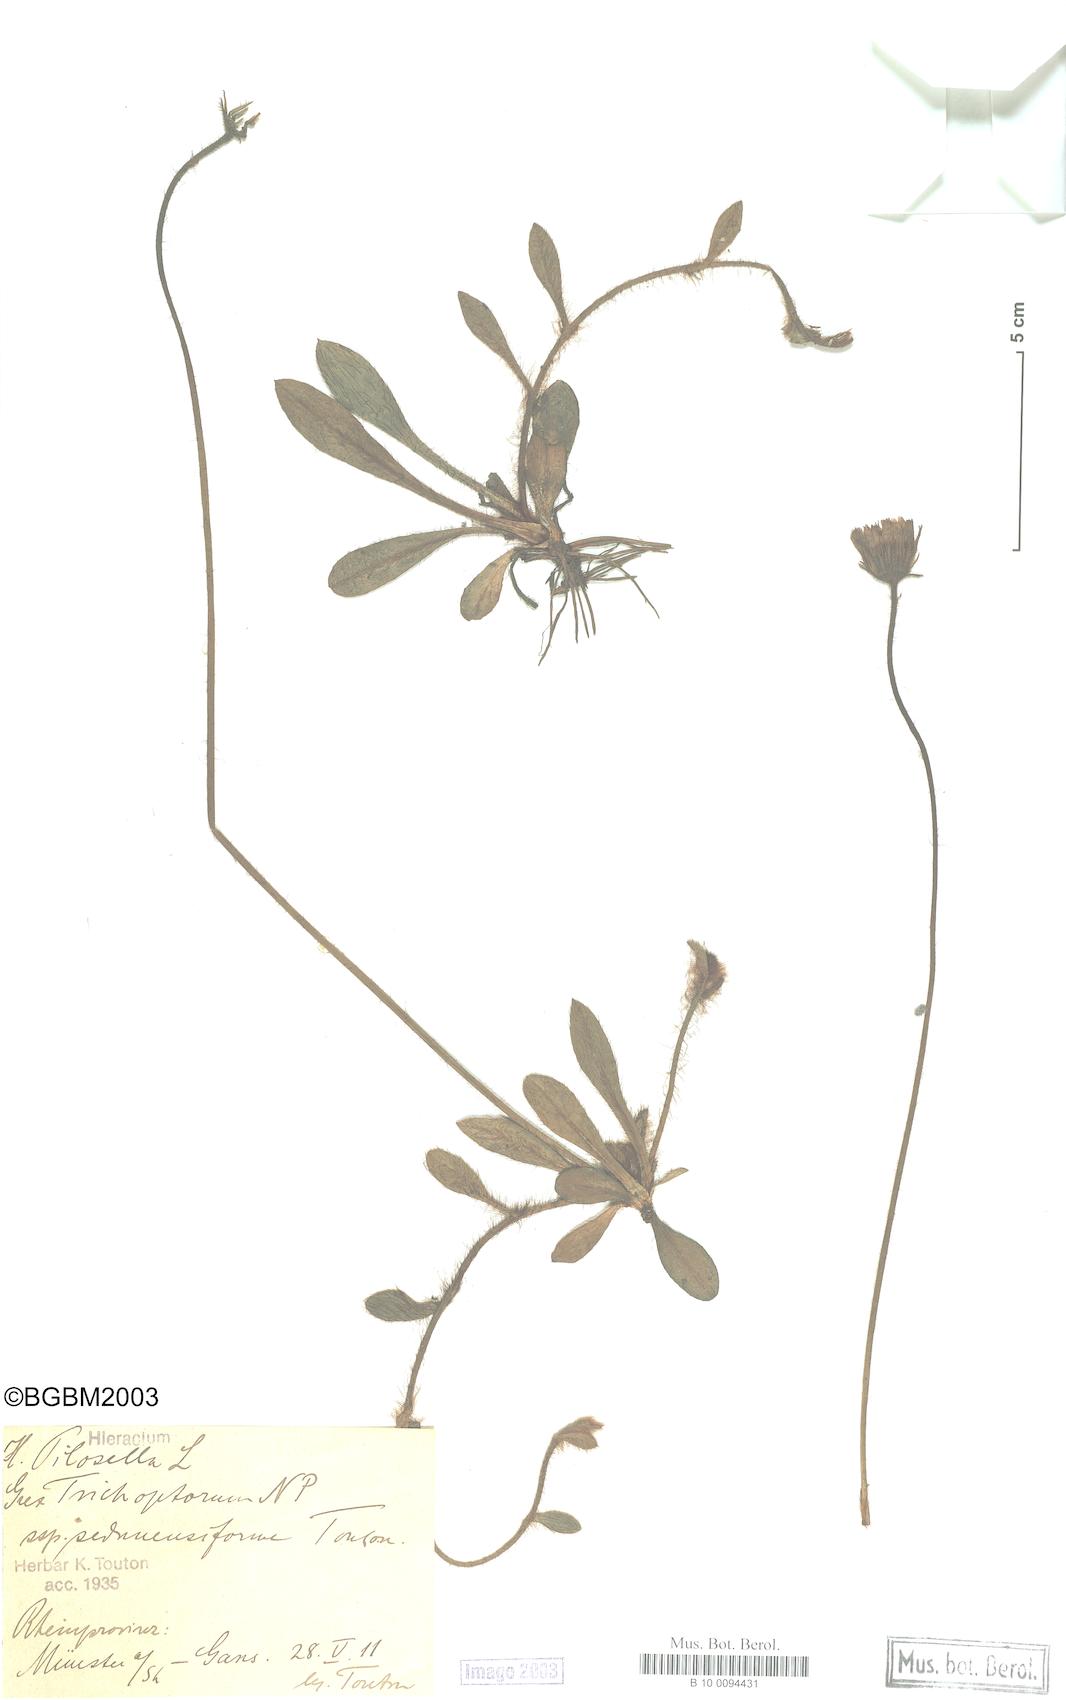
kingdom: Plantae
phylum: Tracheophyta
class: Magnoliopsida
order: Asterales
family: Asteraceae
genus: Pilosella
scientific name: Pilosella officinarum
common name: Mouse-ear hawkweed
